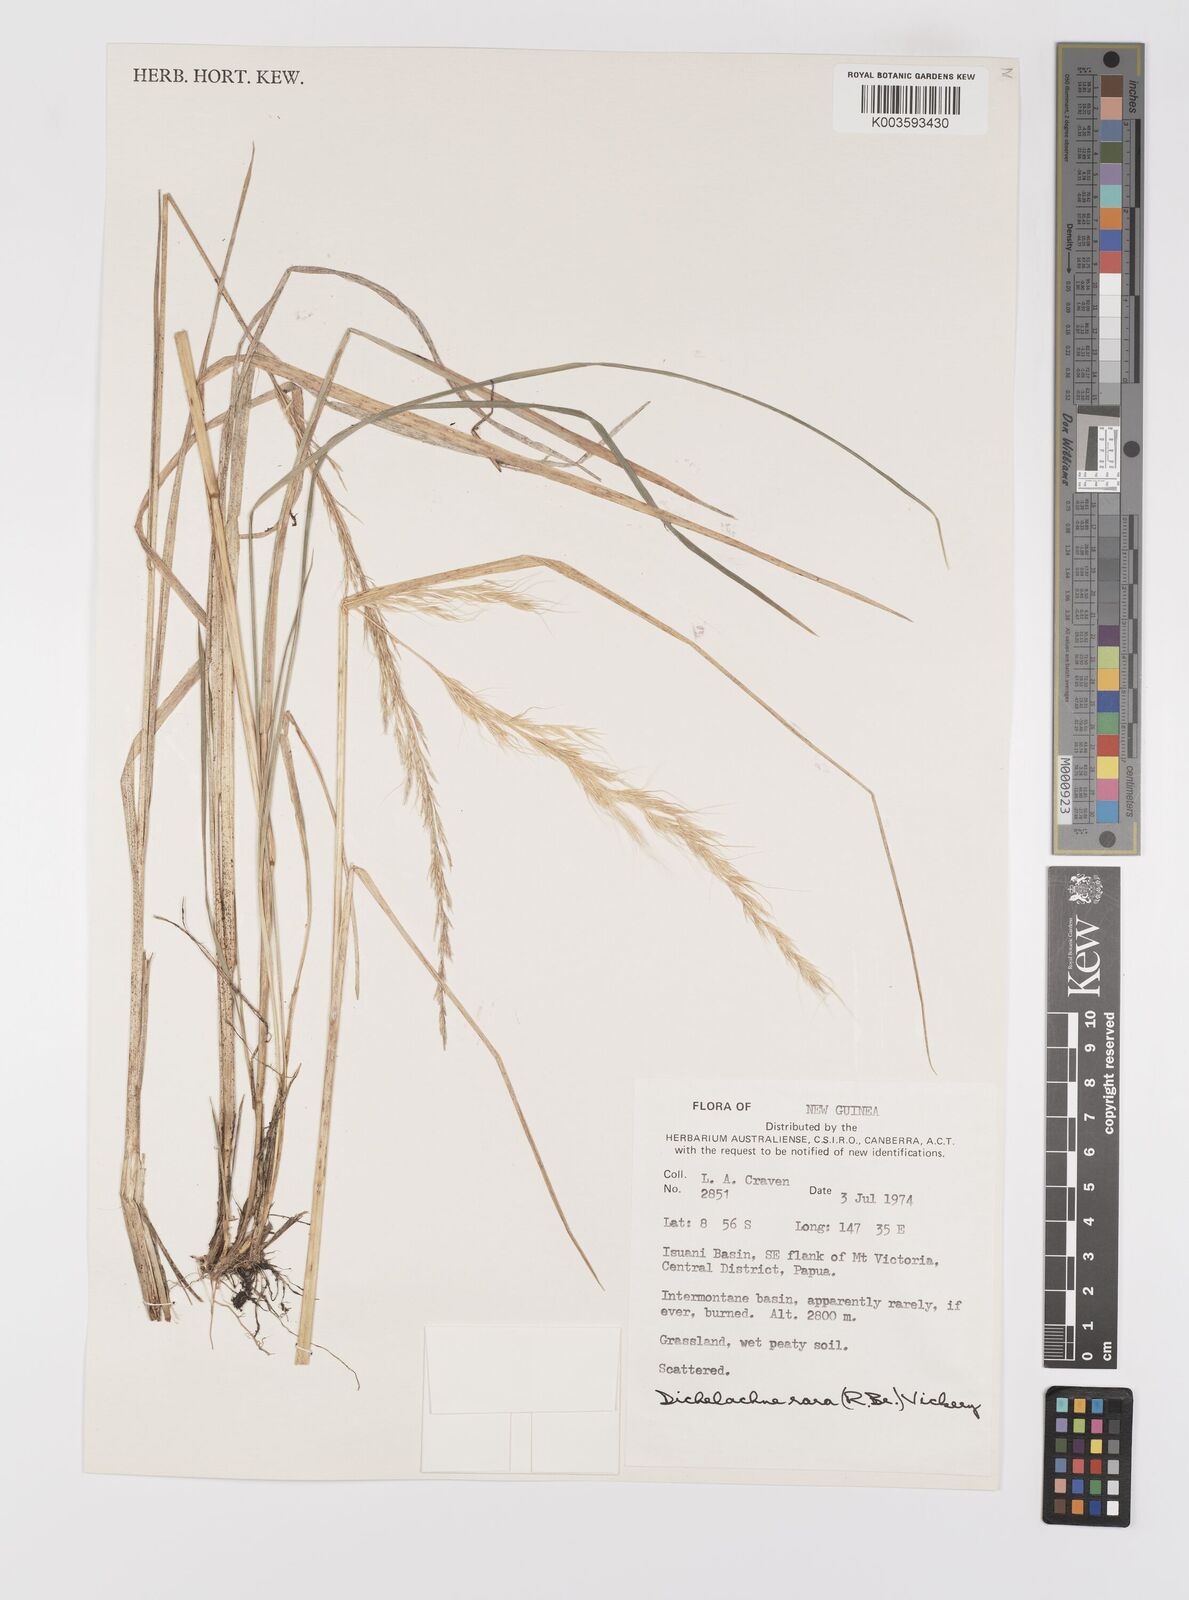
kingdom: Plantae
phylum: Tracheophyta
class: Liliopsida
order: Poales
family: Poaceae
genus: Dichelachne
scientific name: Dichelachne rara
